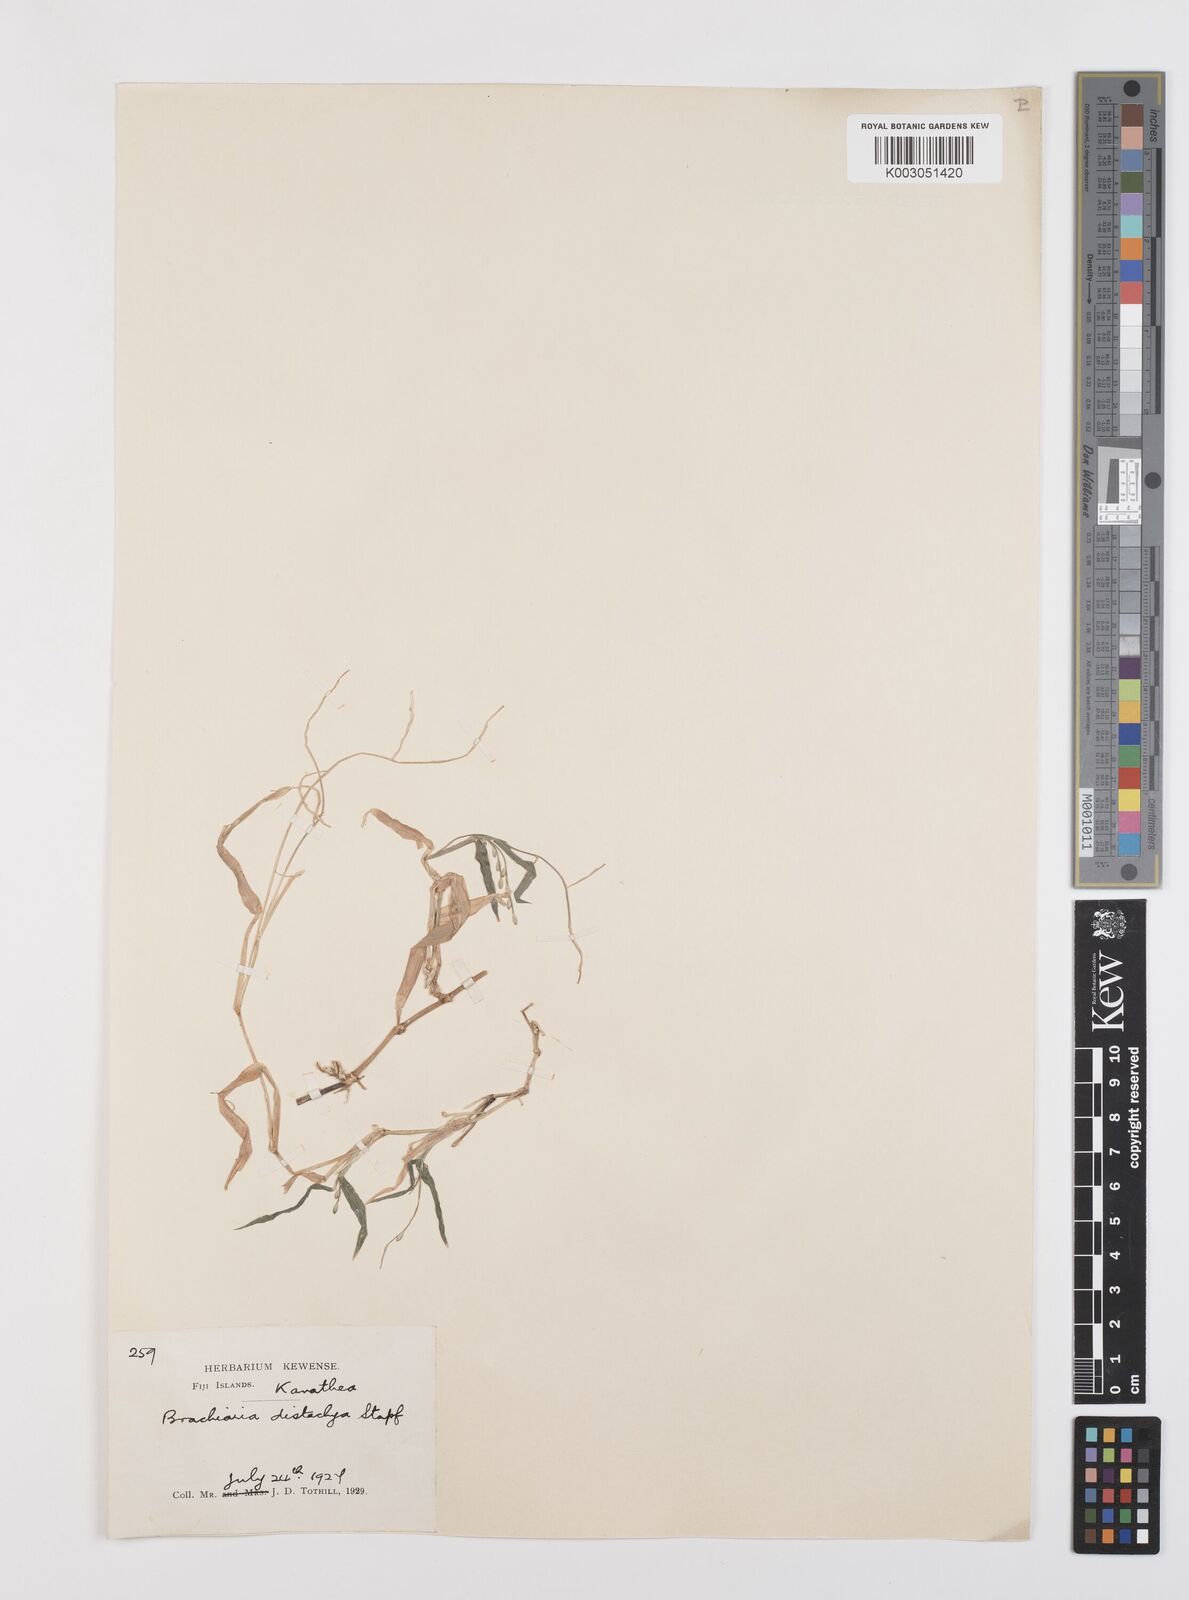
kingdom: Plantae
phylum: Tracheophyta
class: Liliopsida
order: Poales
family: Poaceae
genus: Urochloa
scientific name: Urochloa subquadripara
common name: Armgrass millet
